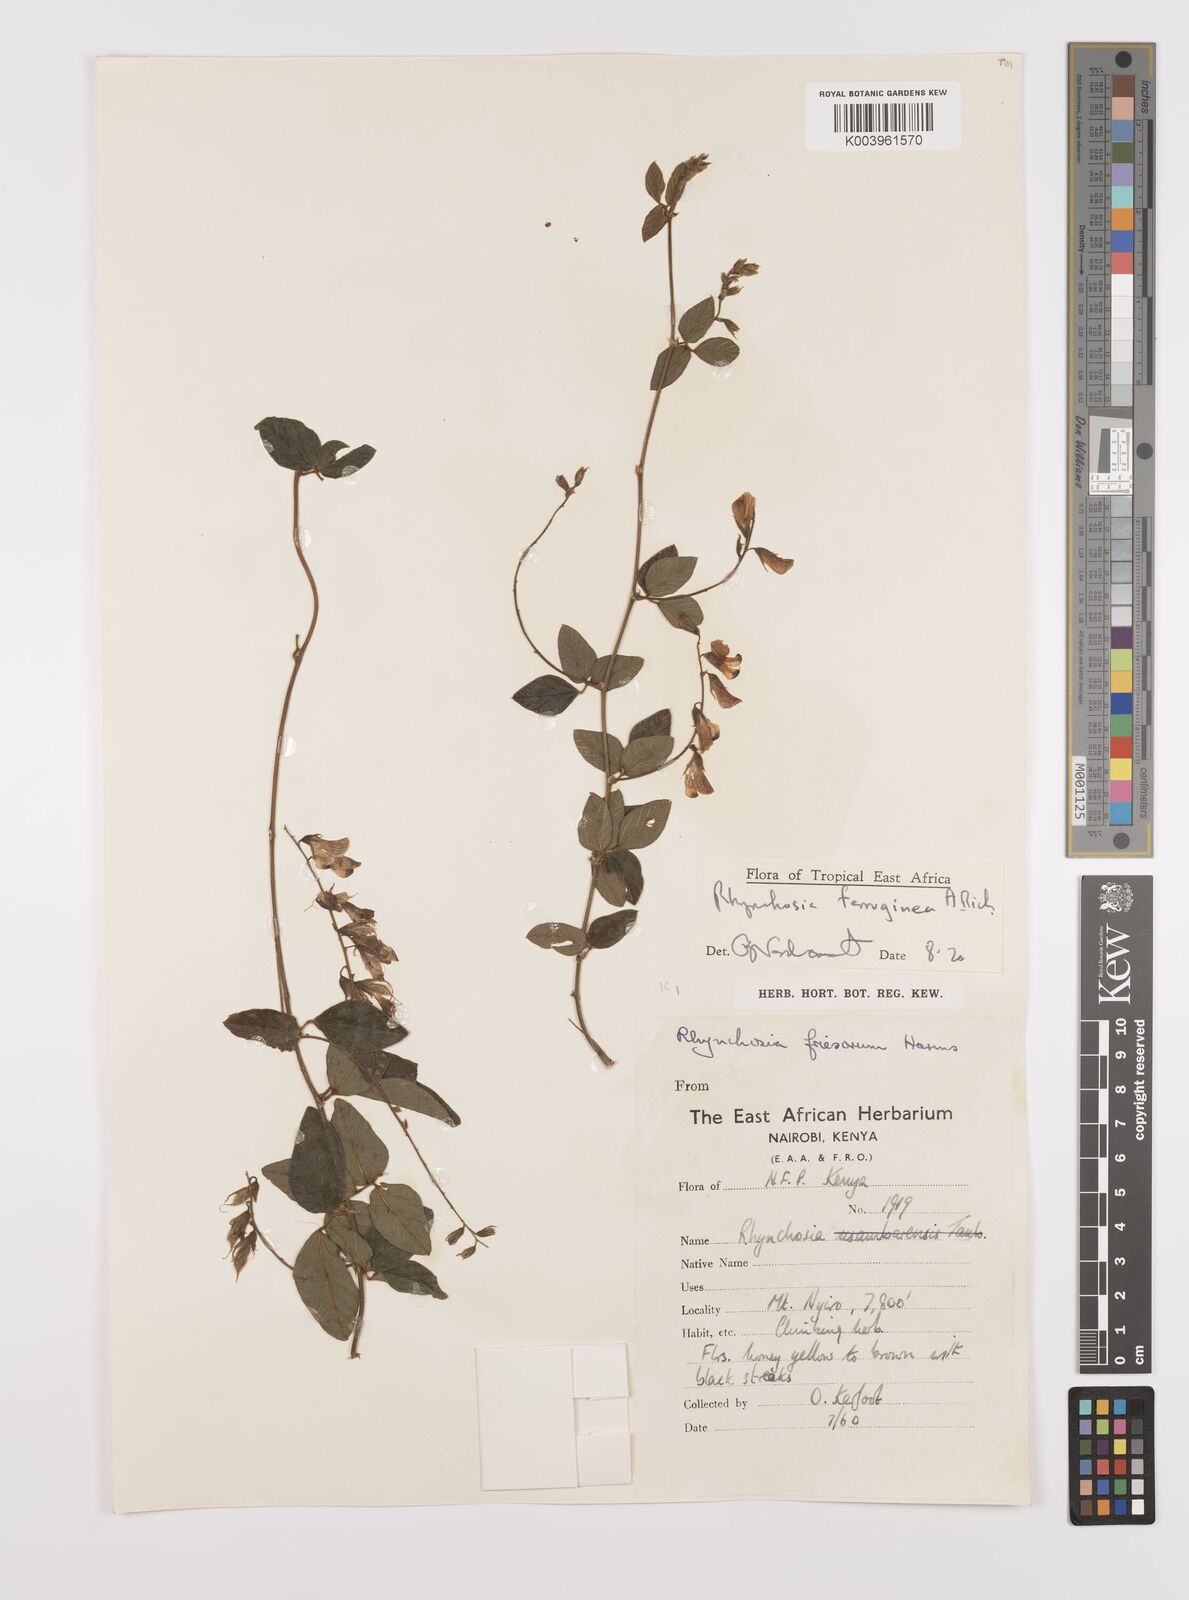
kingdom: Plantae
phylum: Tracheophyta
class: Magnoliopsida
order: Fabales
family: Fabaceae
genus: Rhynchosia
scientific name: Rhynchosia ferruginea
